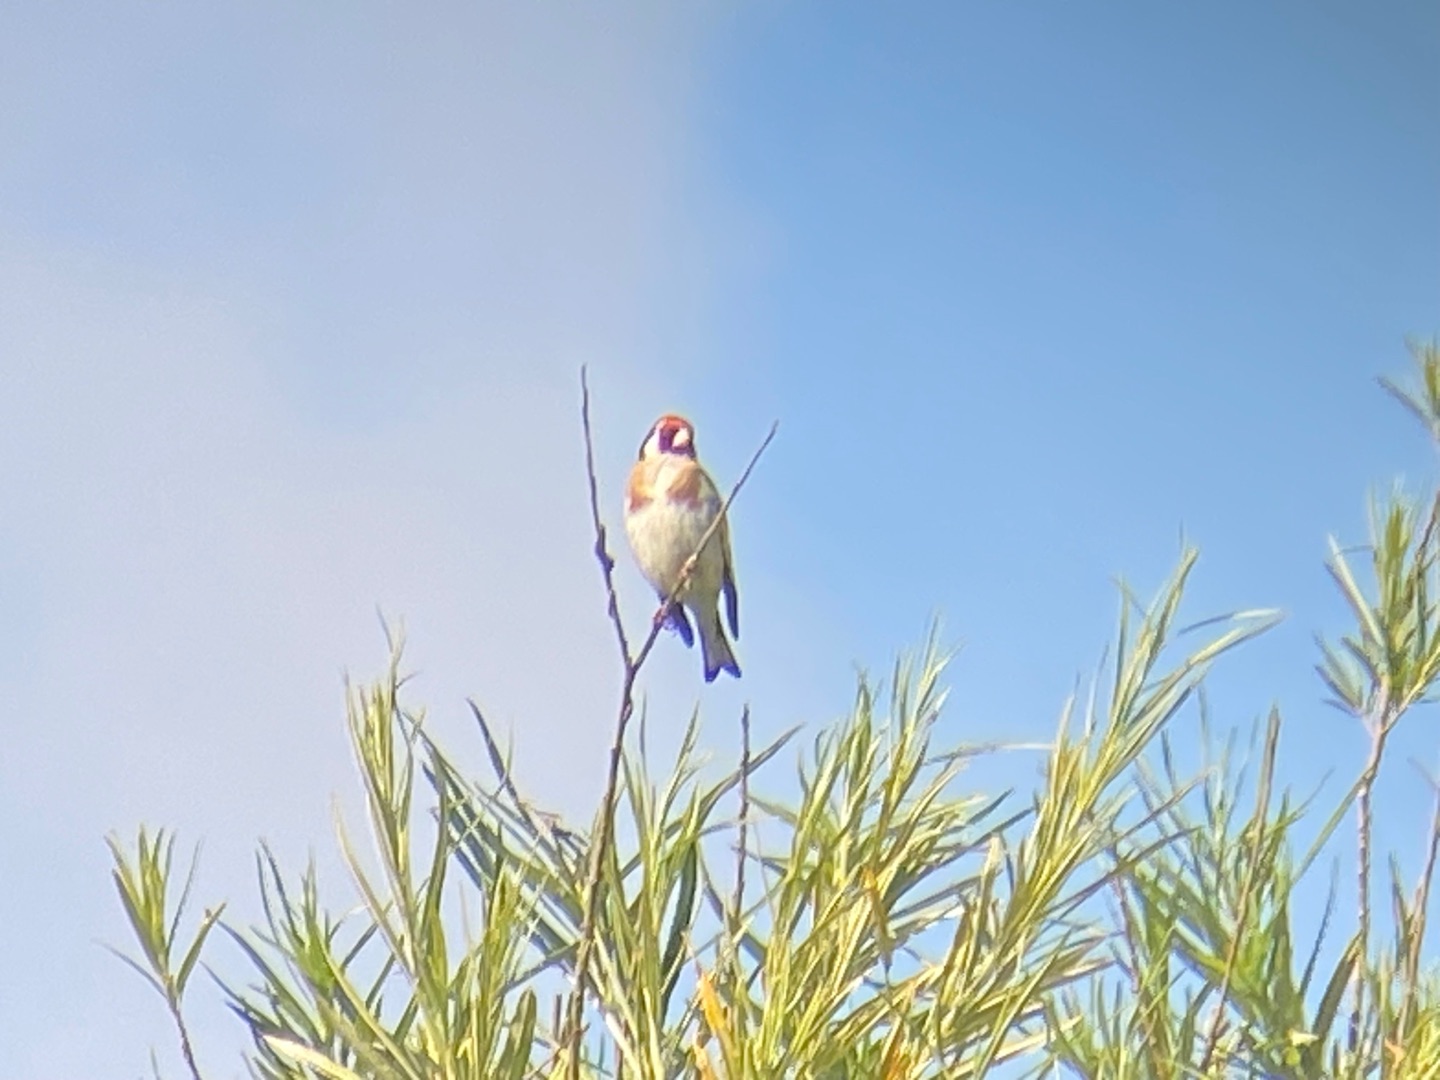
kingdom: Animalia
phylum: Chordata
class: Aves
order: Passeriformes
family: Fringillidae
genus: Carduelis
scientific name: Carduelis carduelis
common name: Stillits
